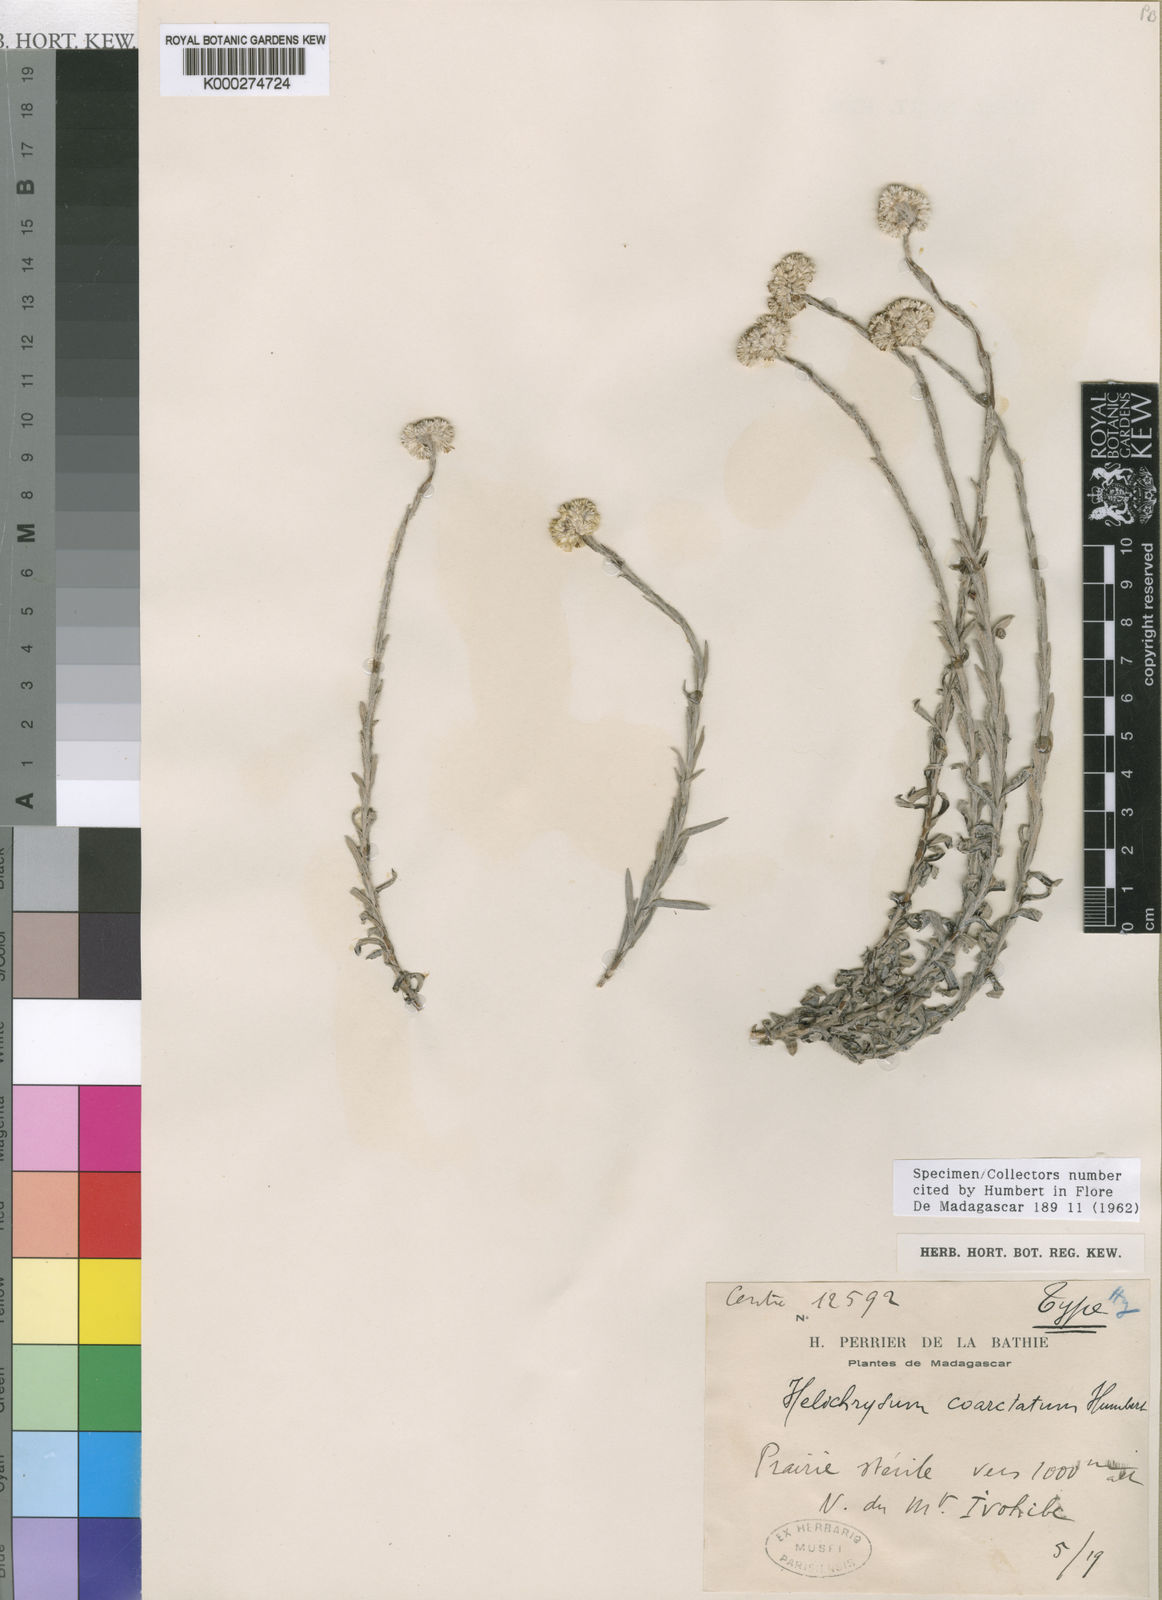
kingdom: Plantae
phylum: Tracheophyta
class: Magnoliopsida
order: Asterales
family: Asteraceae
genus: Helichrysum
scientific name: Helichrysum leucosphaerum
